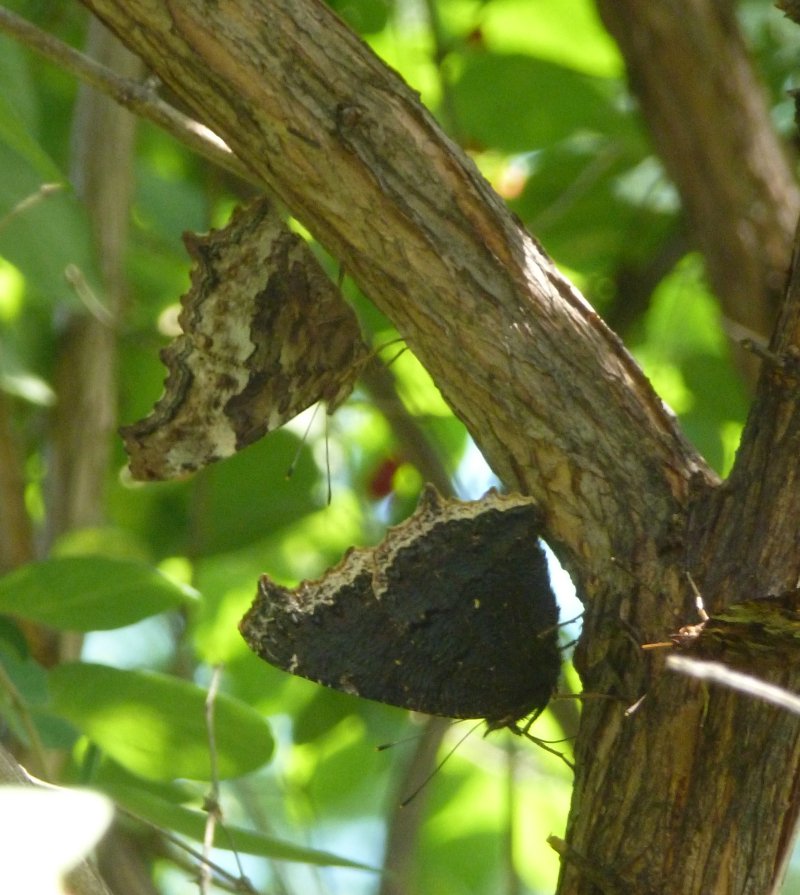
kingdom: Animalia
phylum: Arthropoda
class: Insecta
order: Lepidoptera
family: Nymphalidae
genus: Polygonia
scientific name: Polygonia vaualbum
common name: Compton Tortoiseshell
